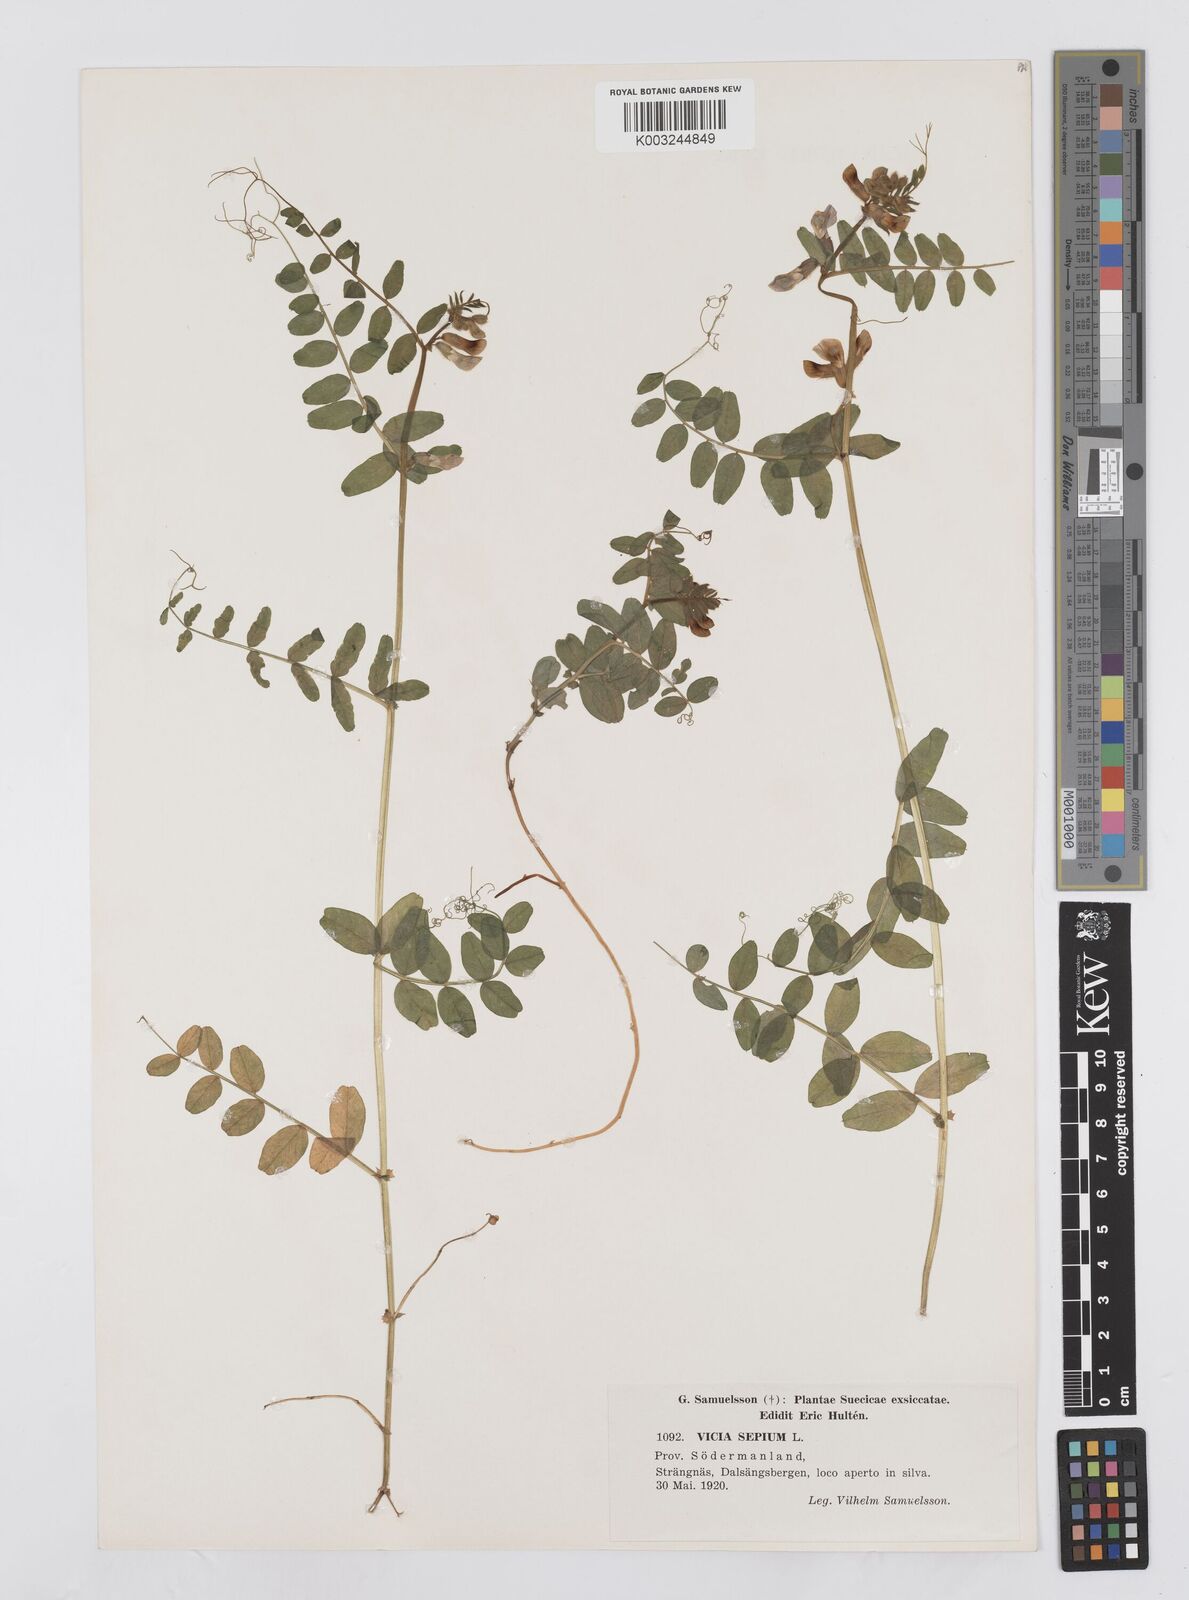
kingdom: Plantae
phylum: Tracheophyta
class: Magnoliopsida
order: Fabales
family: Fabaceae
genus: Vicia
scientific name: Vicia sepium
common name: Bush vetch
